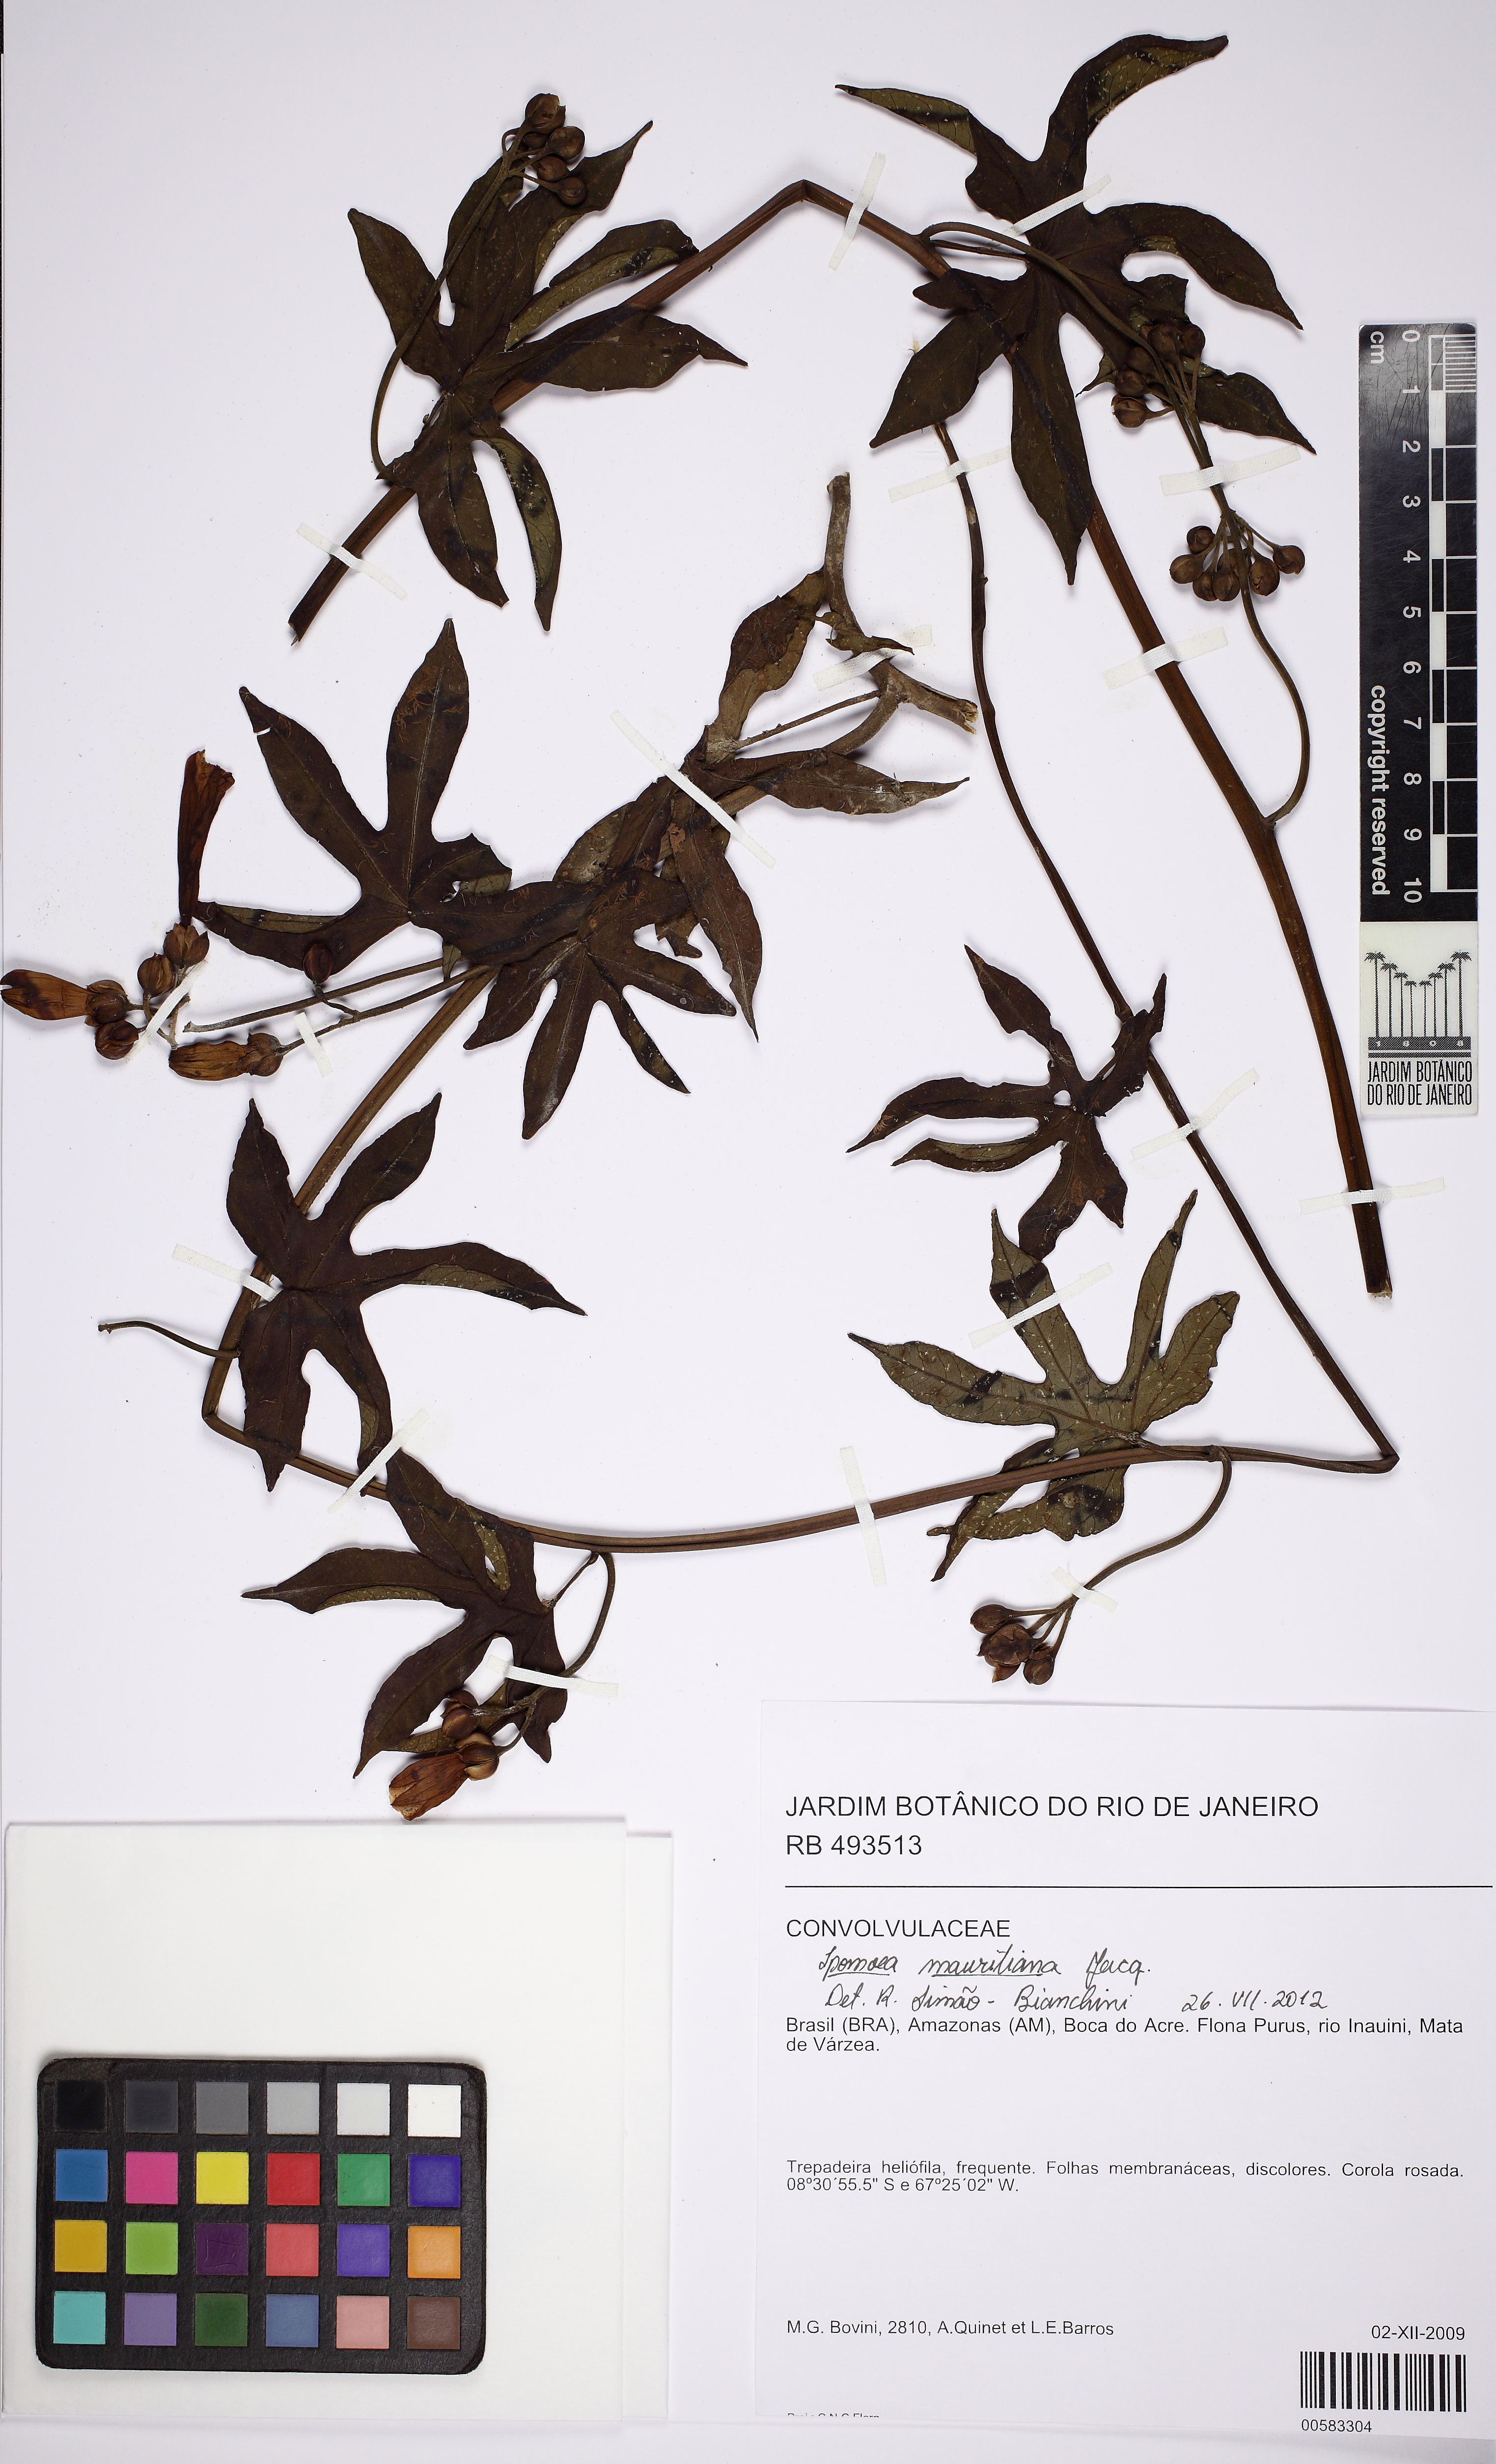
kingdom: Plantae
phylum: Tracheophyta
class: Magnoliopsida
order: Solanales
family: Convolvulaceae
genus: Ipomoea
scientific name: Ipomoea mauritiana
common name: Mauritanian convolvulus
